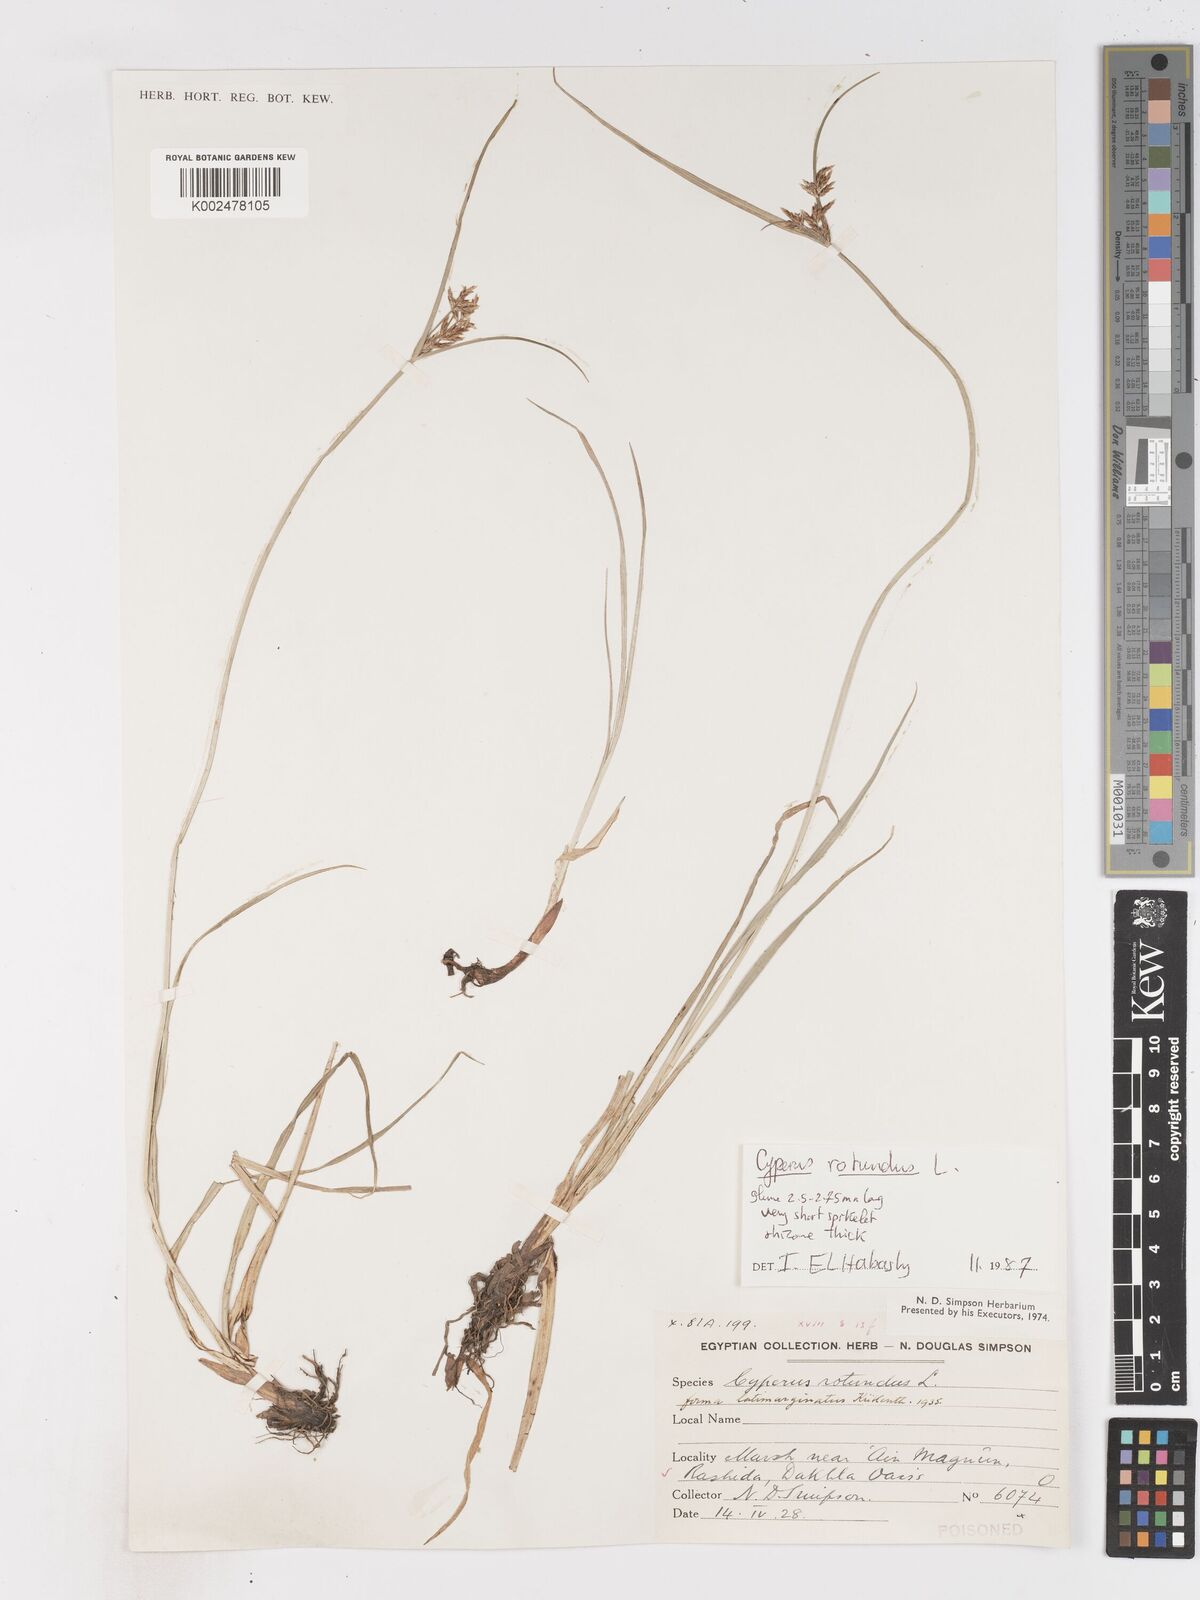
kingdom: Plantae
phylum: Tracheophyta
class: Liliopsida
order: Poales
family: Cyperaceae
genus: Cyperus
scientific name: Cyperus rotundus
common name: Nutgrass
